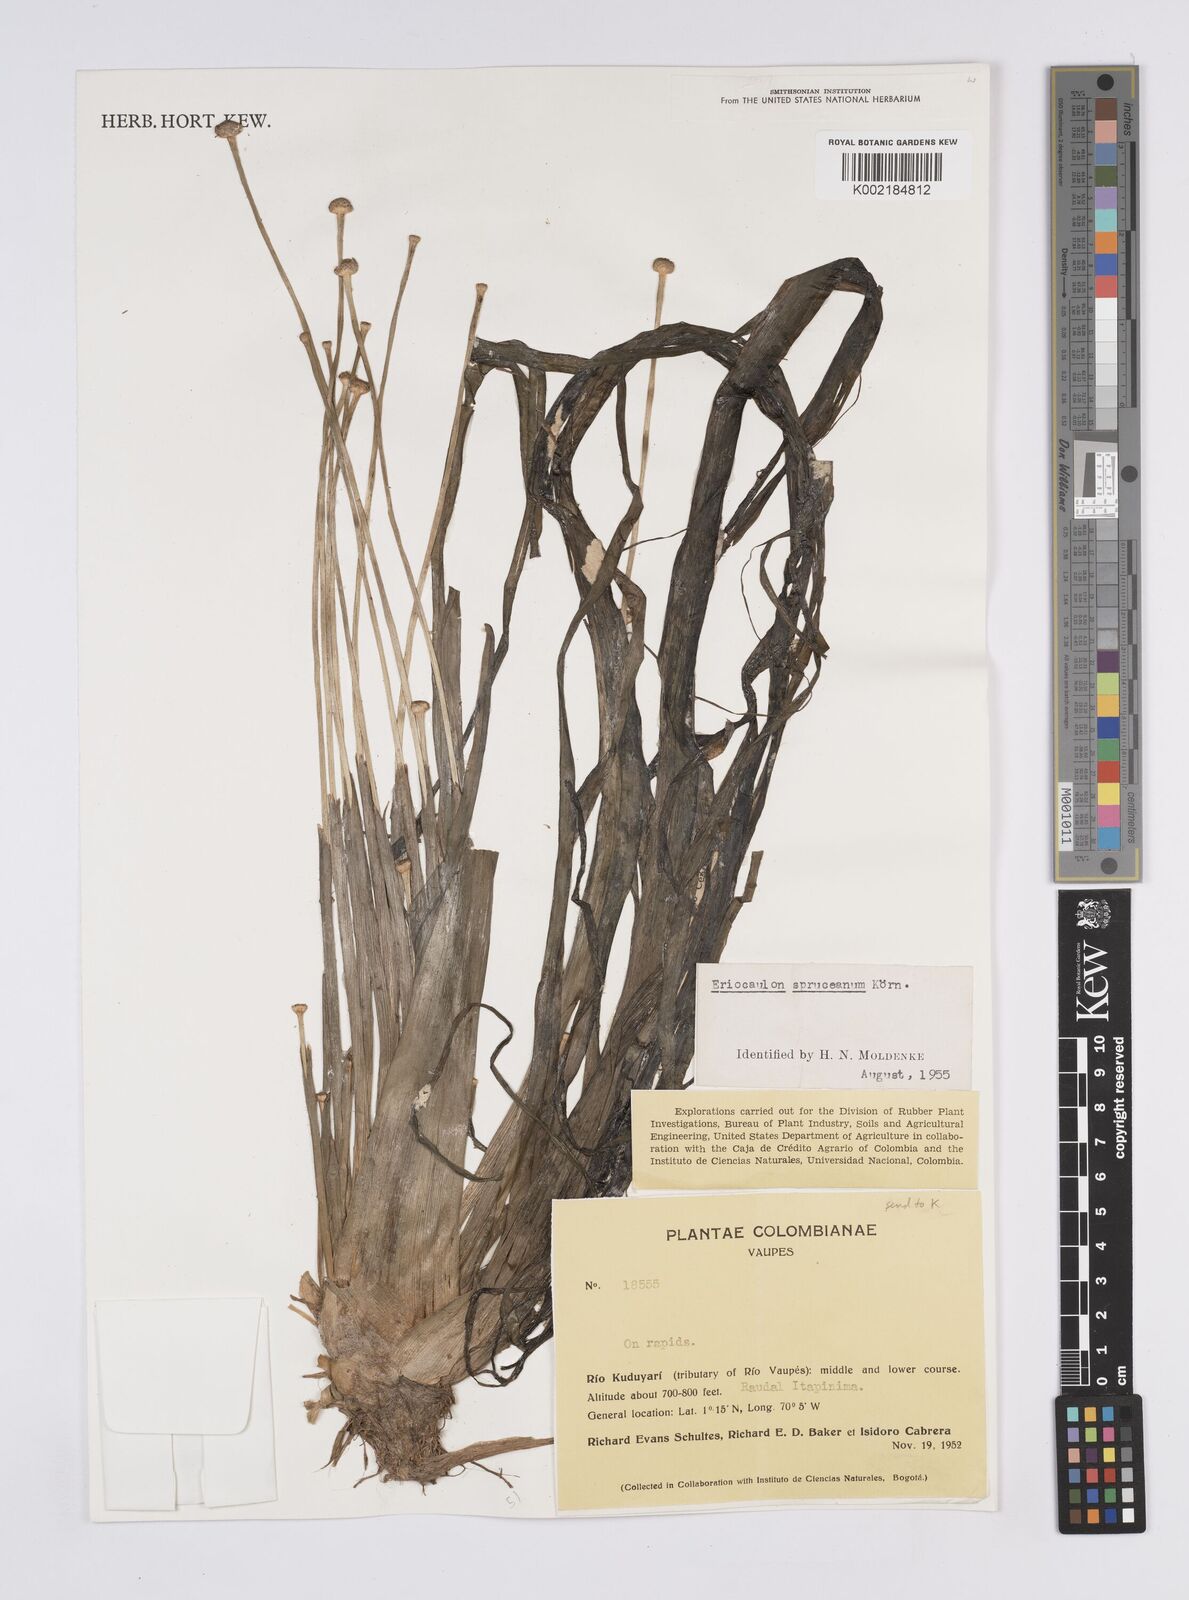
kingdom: Plantae
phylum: Tracheophyta
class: Liliopsida
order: Poales
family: Eriocaulaceae
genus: Eriocaulon
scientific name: Eriocaulon spruceanum
